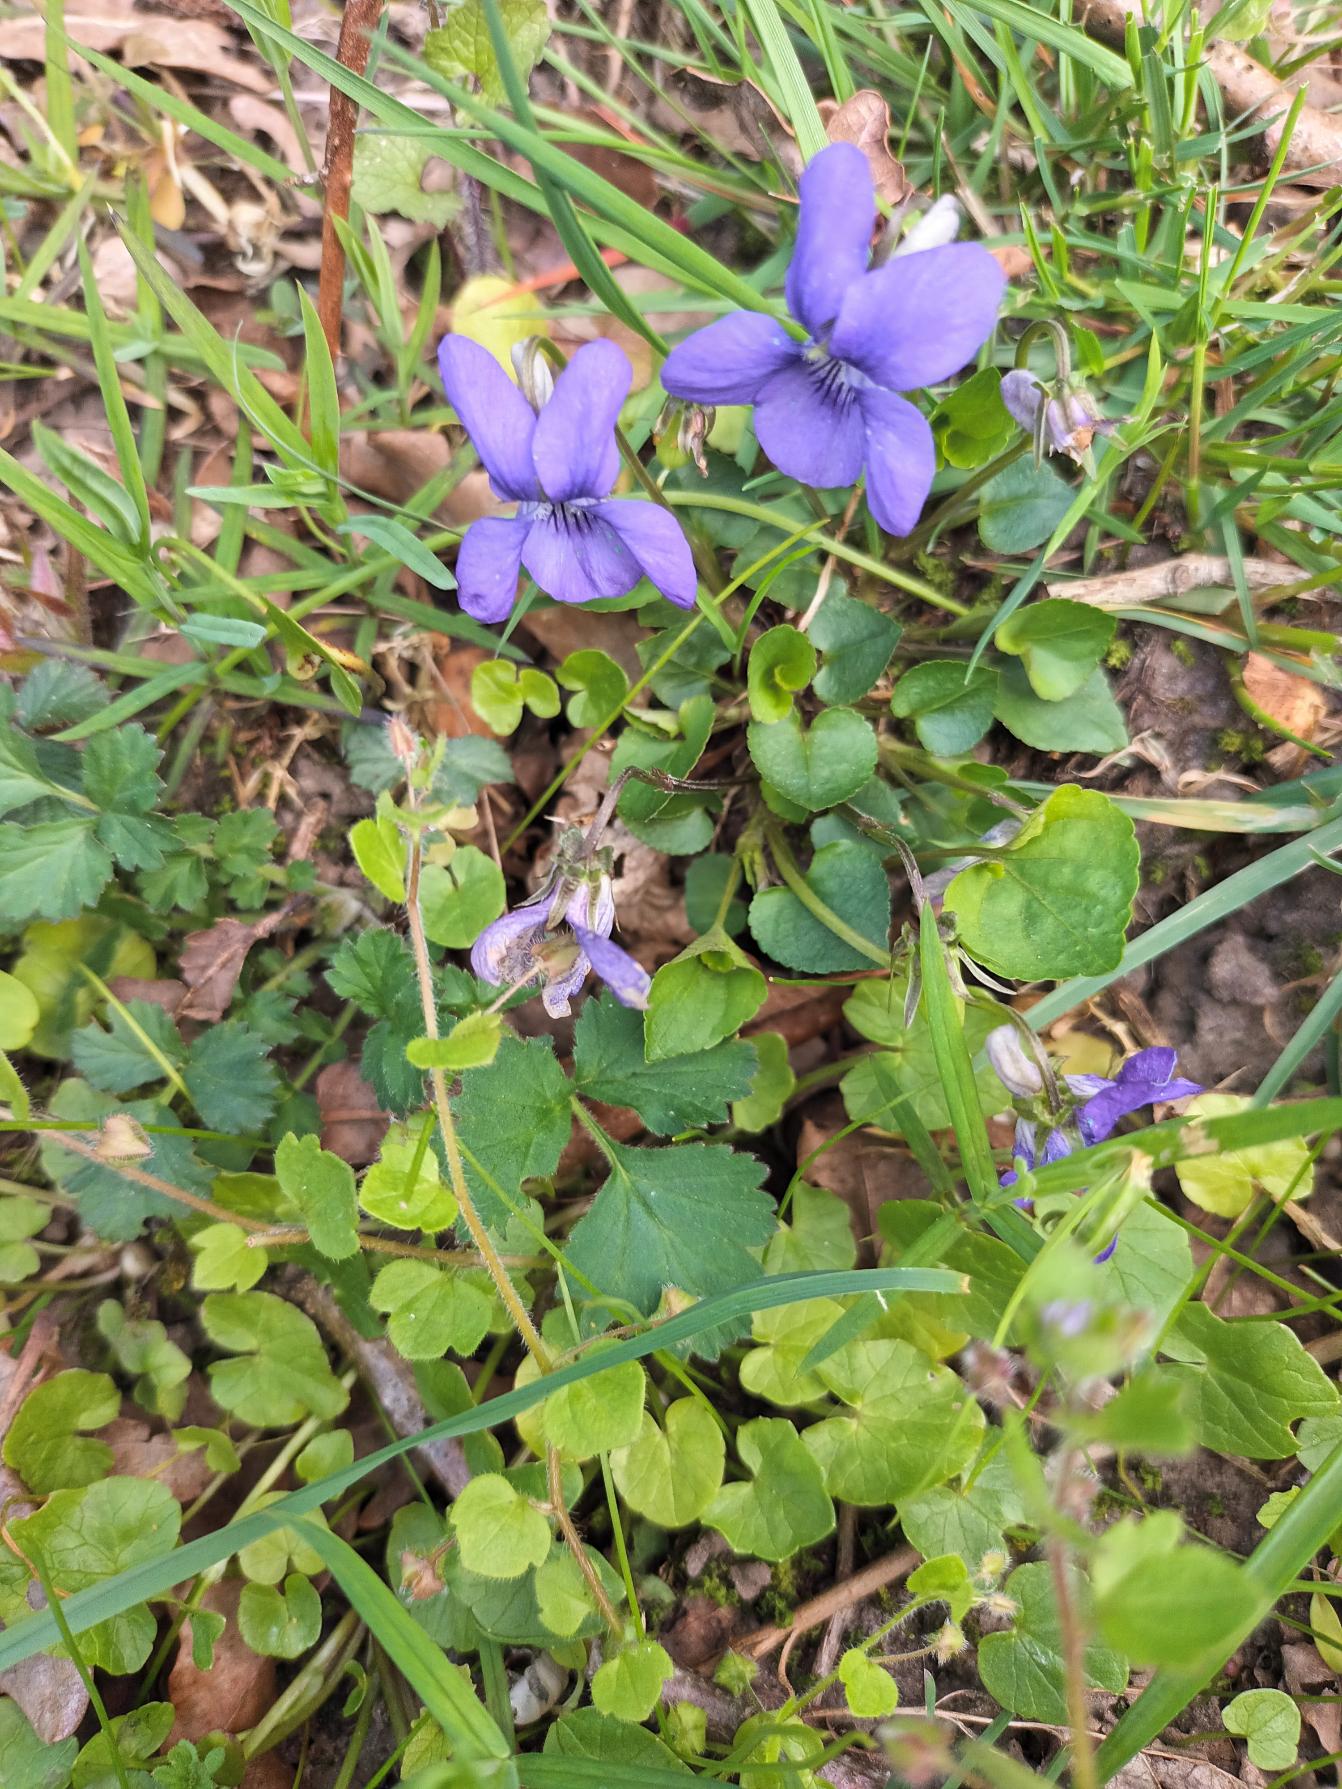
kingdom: Plantae
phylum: Tracheophyta
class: Magnoliopsida
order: Malpighiales
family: Violaceae
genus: Viola
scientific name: Viola riviniana
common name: Krat-viol
